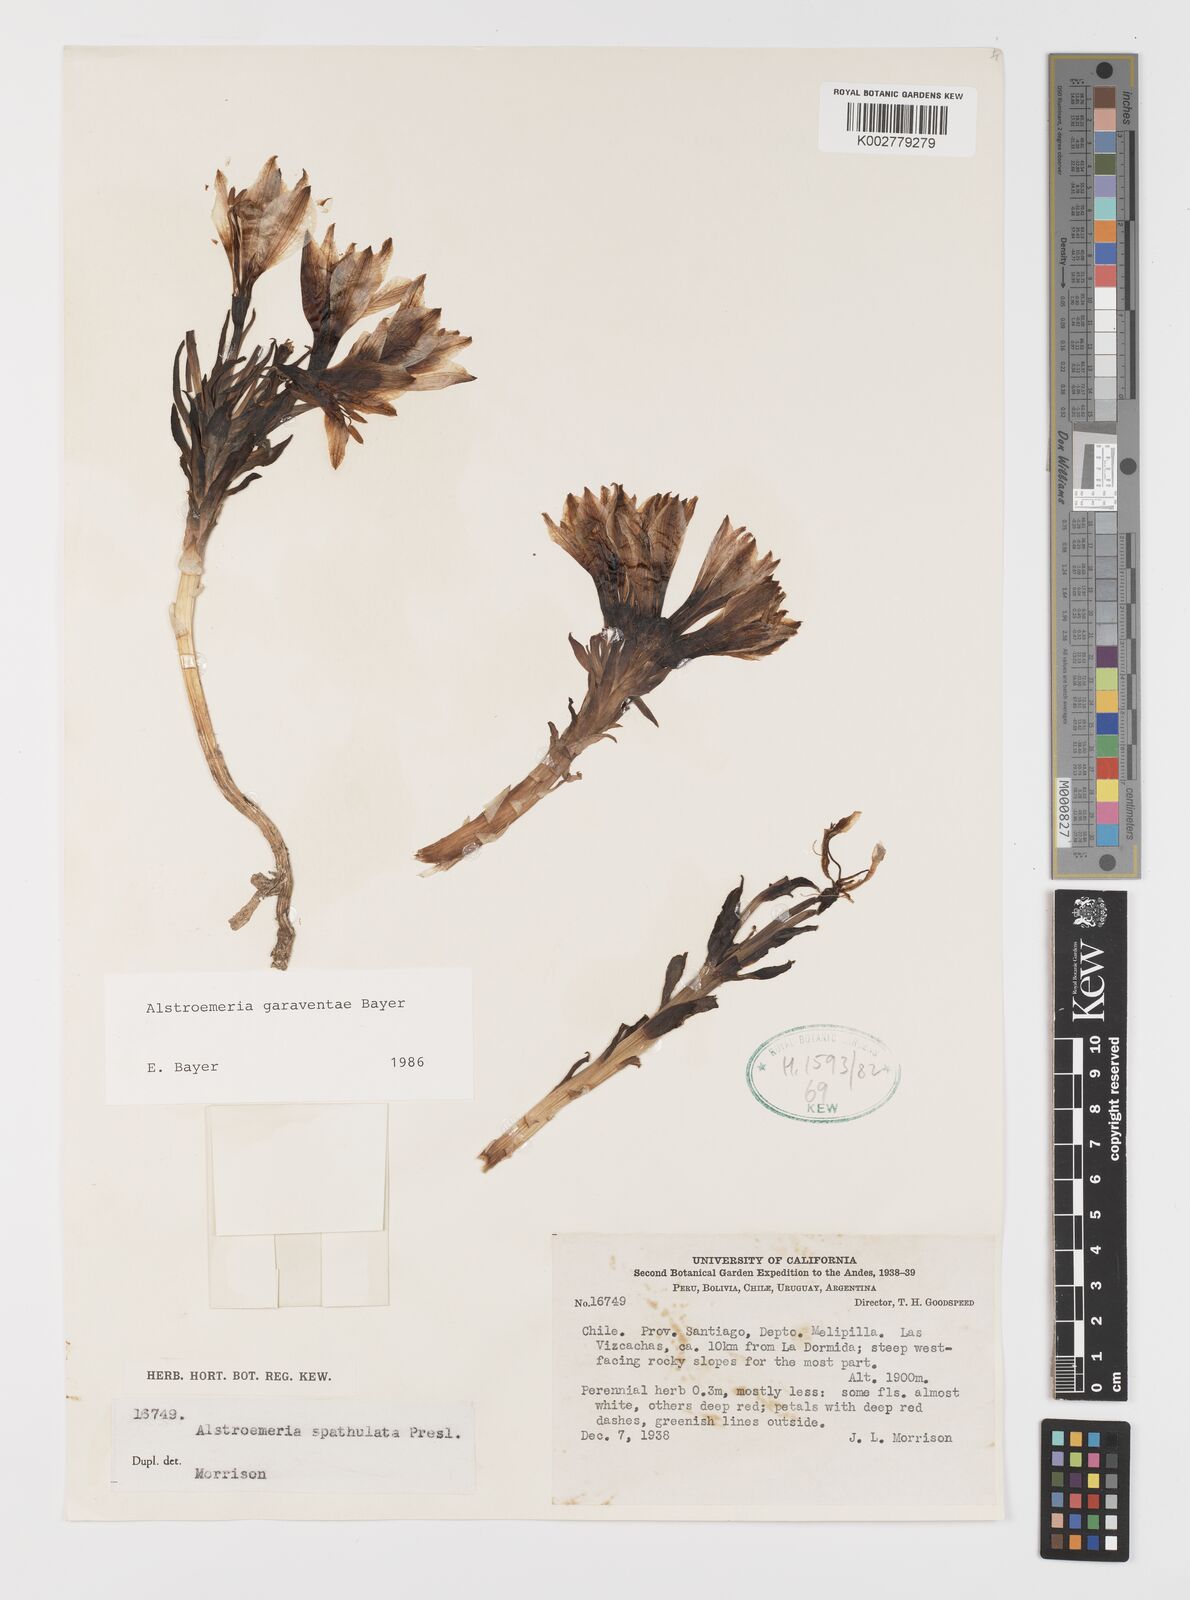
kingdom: Plantae
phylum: Tracheophyta
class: Liliopsida
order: Liliales
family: Alstroemeriaceae
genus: Alstroemeria
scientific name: Alstroemeria garaventae
